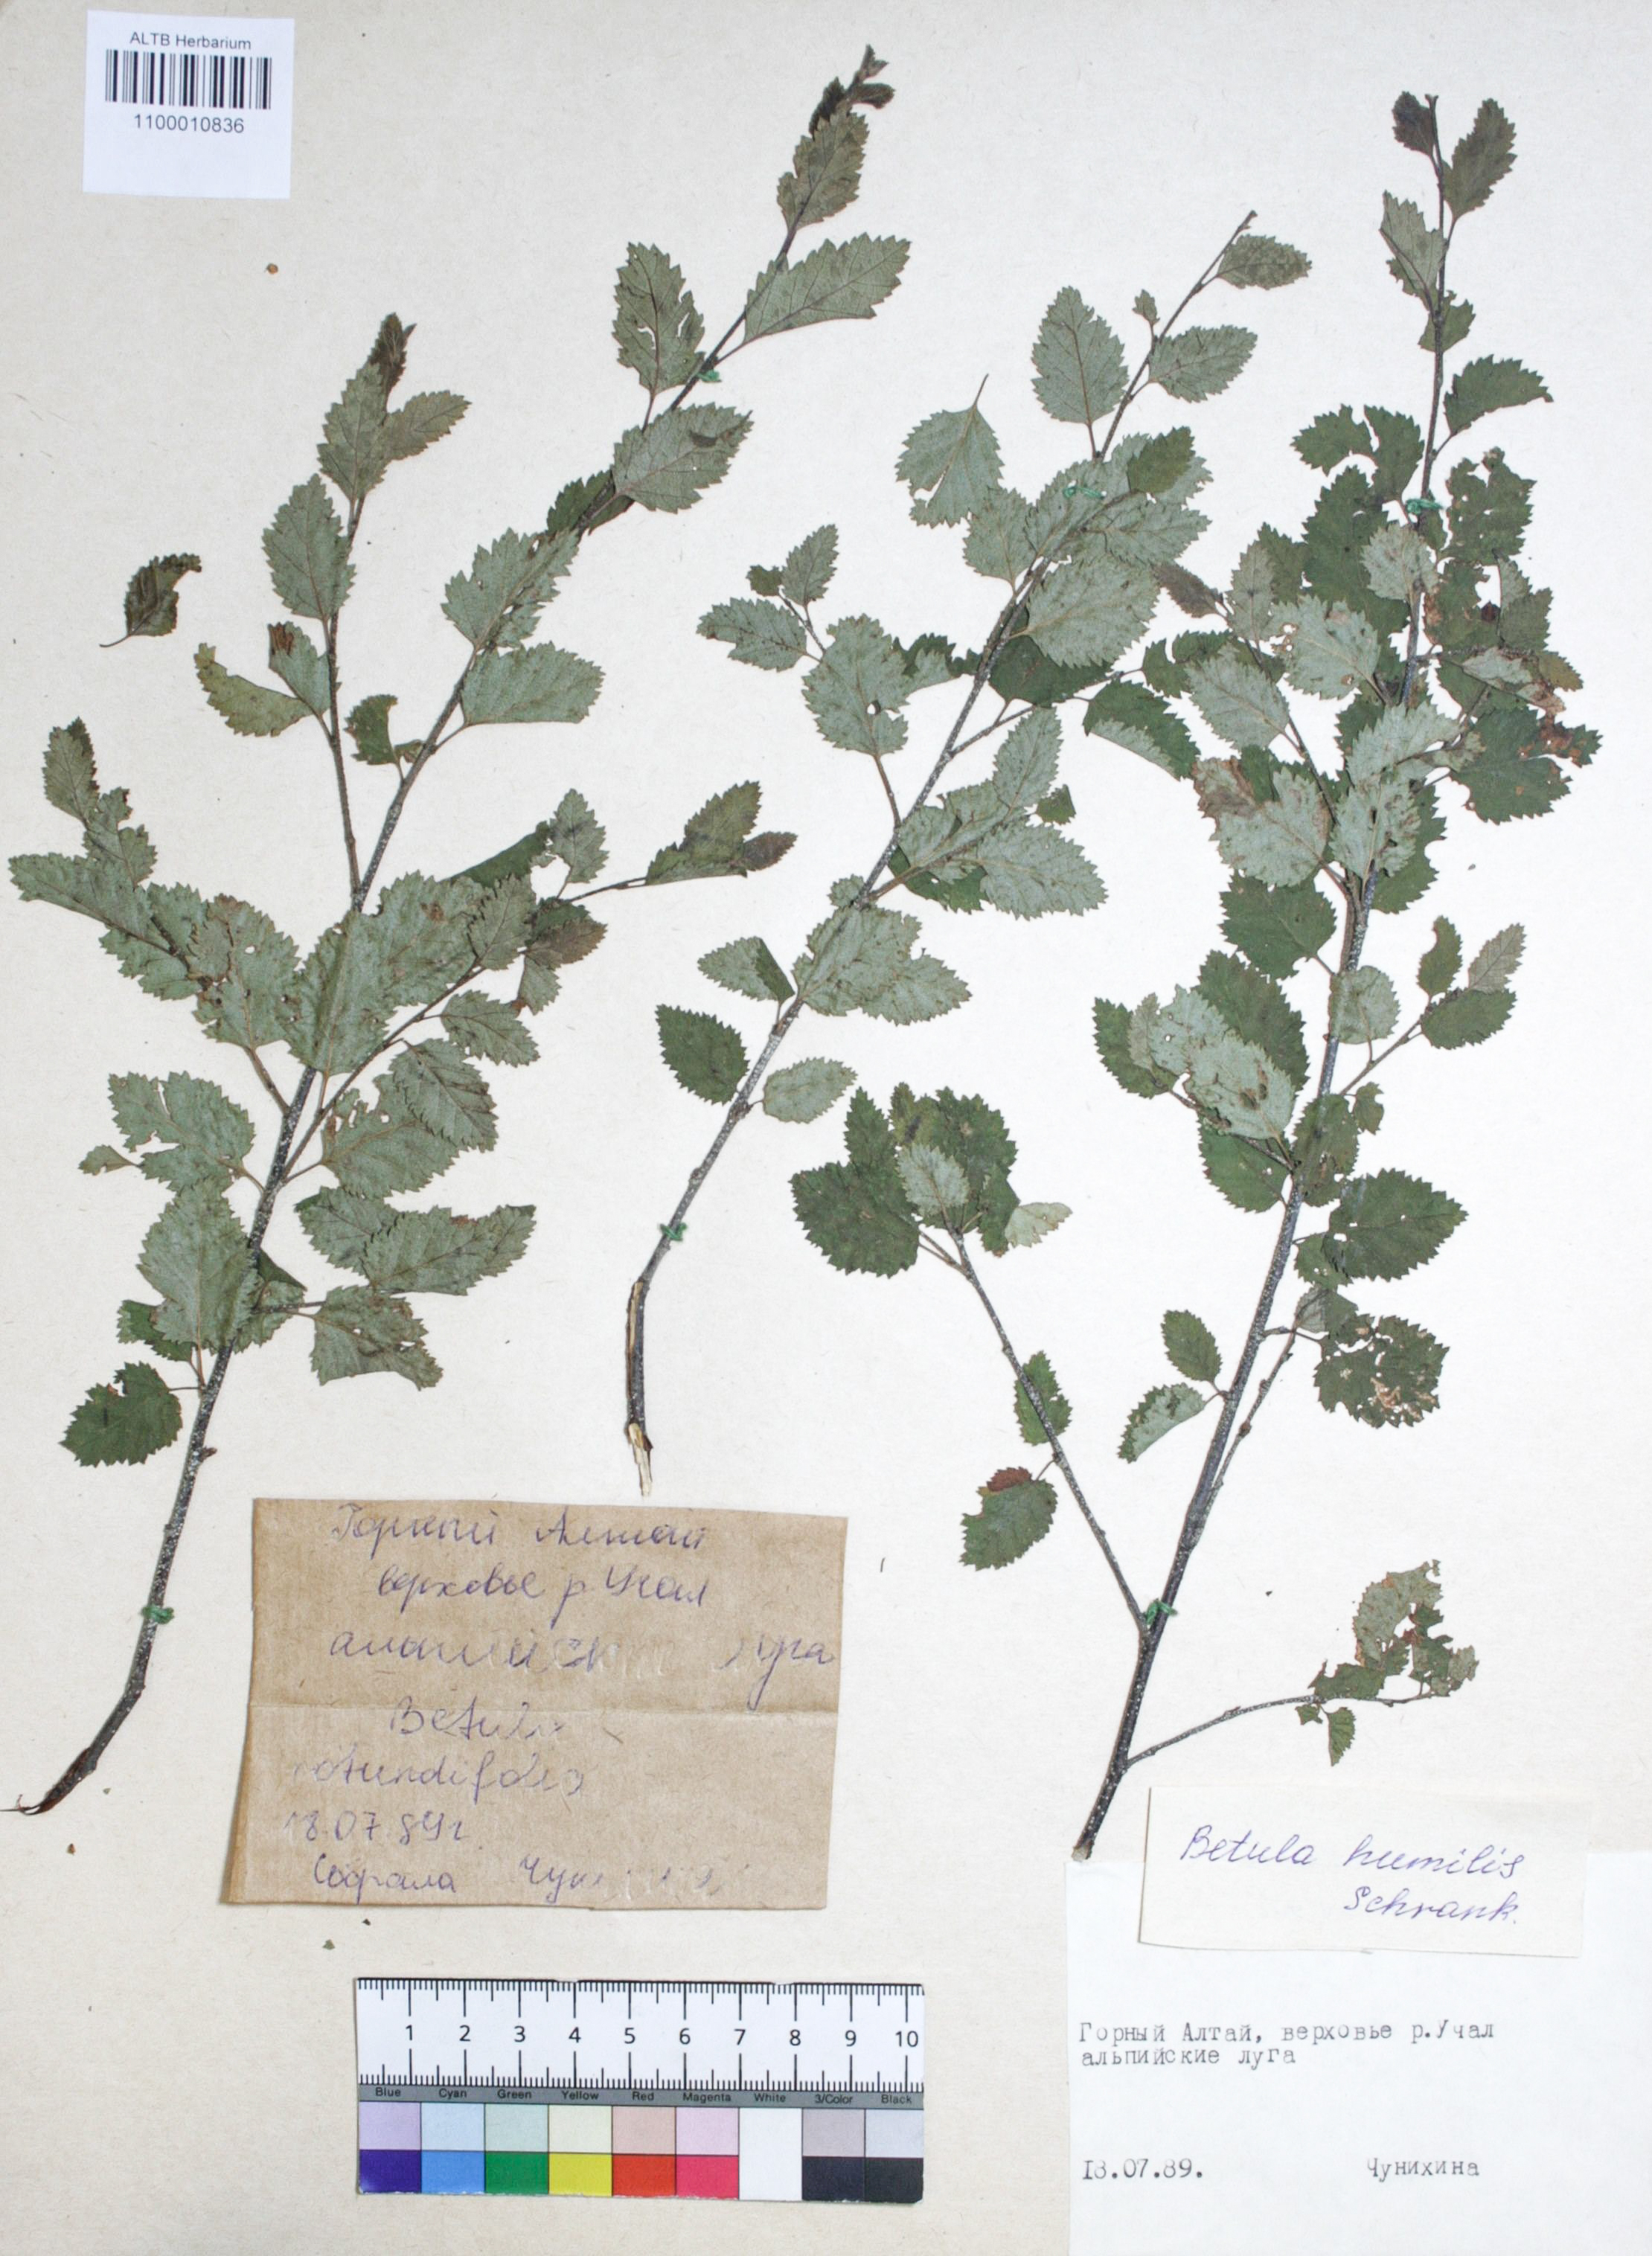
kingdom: Plantae
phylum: Tracheophyta
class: Magnoliopsida
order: Fagales
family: Betulaceae
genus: Betula
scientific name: Betula humilis
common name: Shrubby birch
